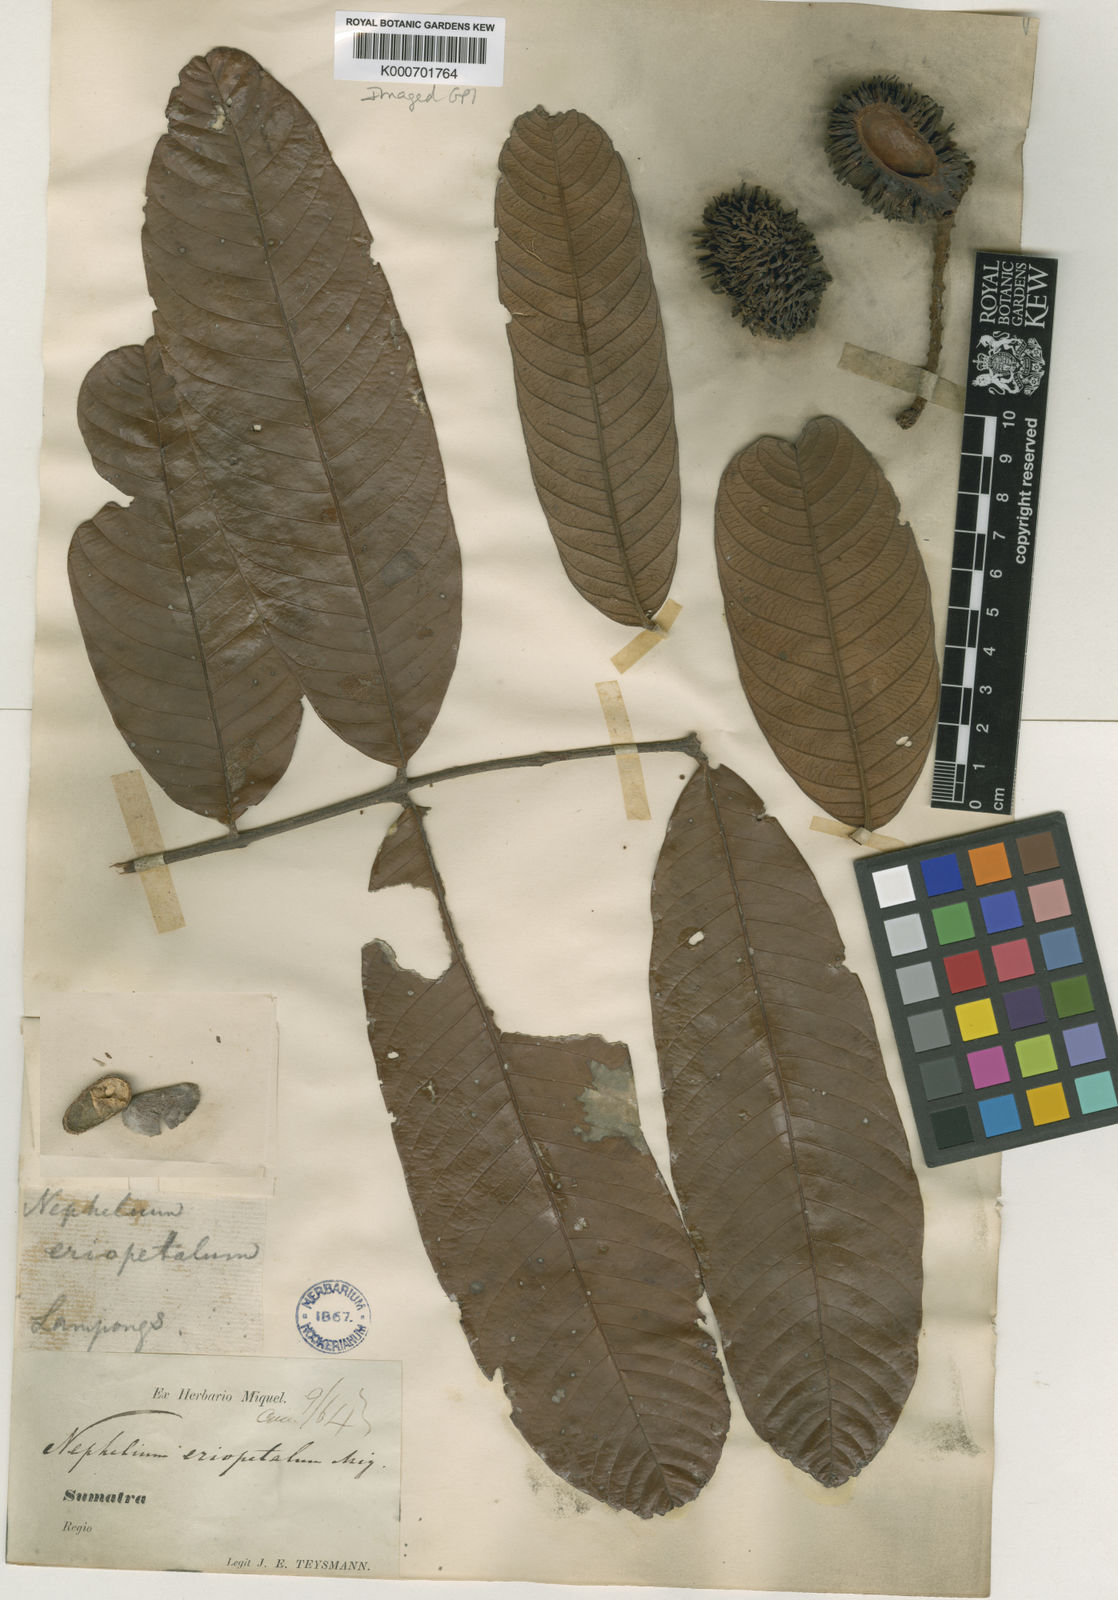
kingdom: Plantae
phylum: Tracheophyta
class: Magnoliopsida
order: Sapindales
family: Sapindaceae
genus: Nephelium
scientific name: Nephelium cuspidatum
